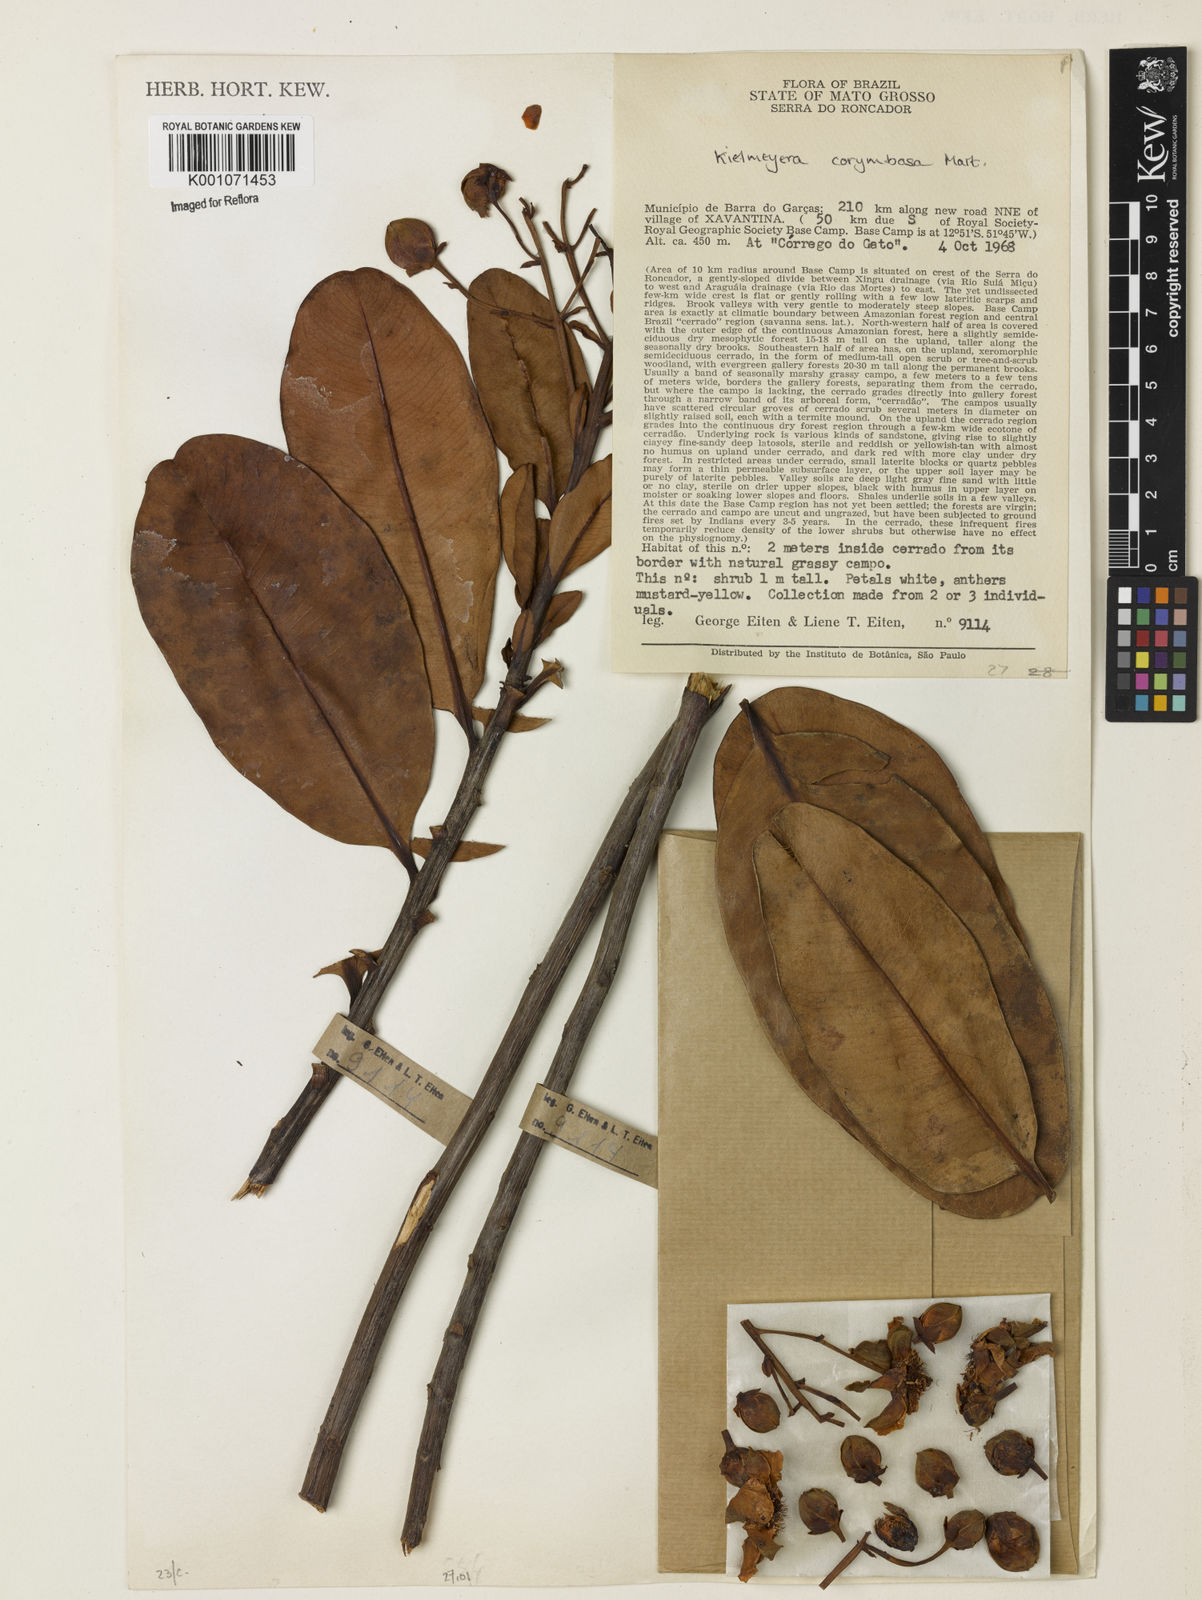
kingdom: Plantae
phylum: Tracheophyta
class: Magnoliopsida
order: Malpighiales
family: Calophyllaceae
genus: Kielmeyera
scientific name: Kielmeyera corymbosa
